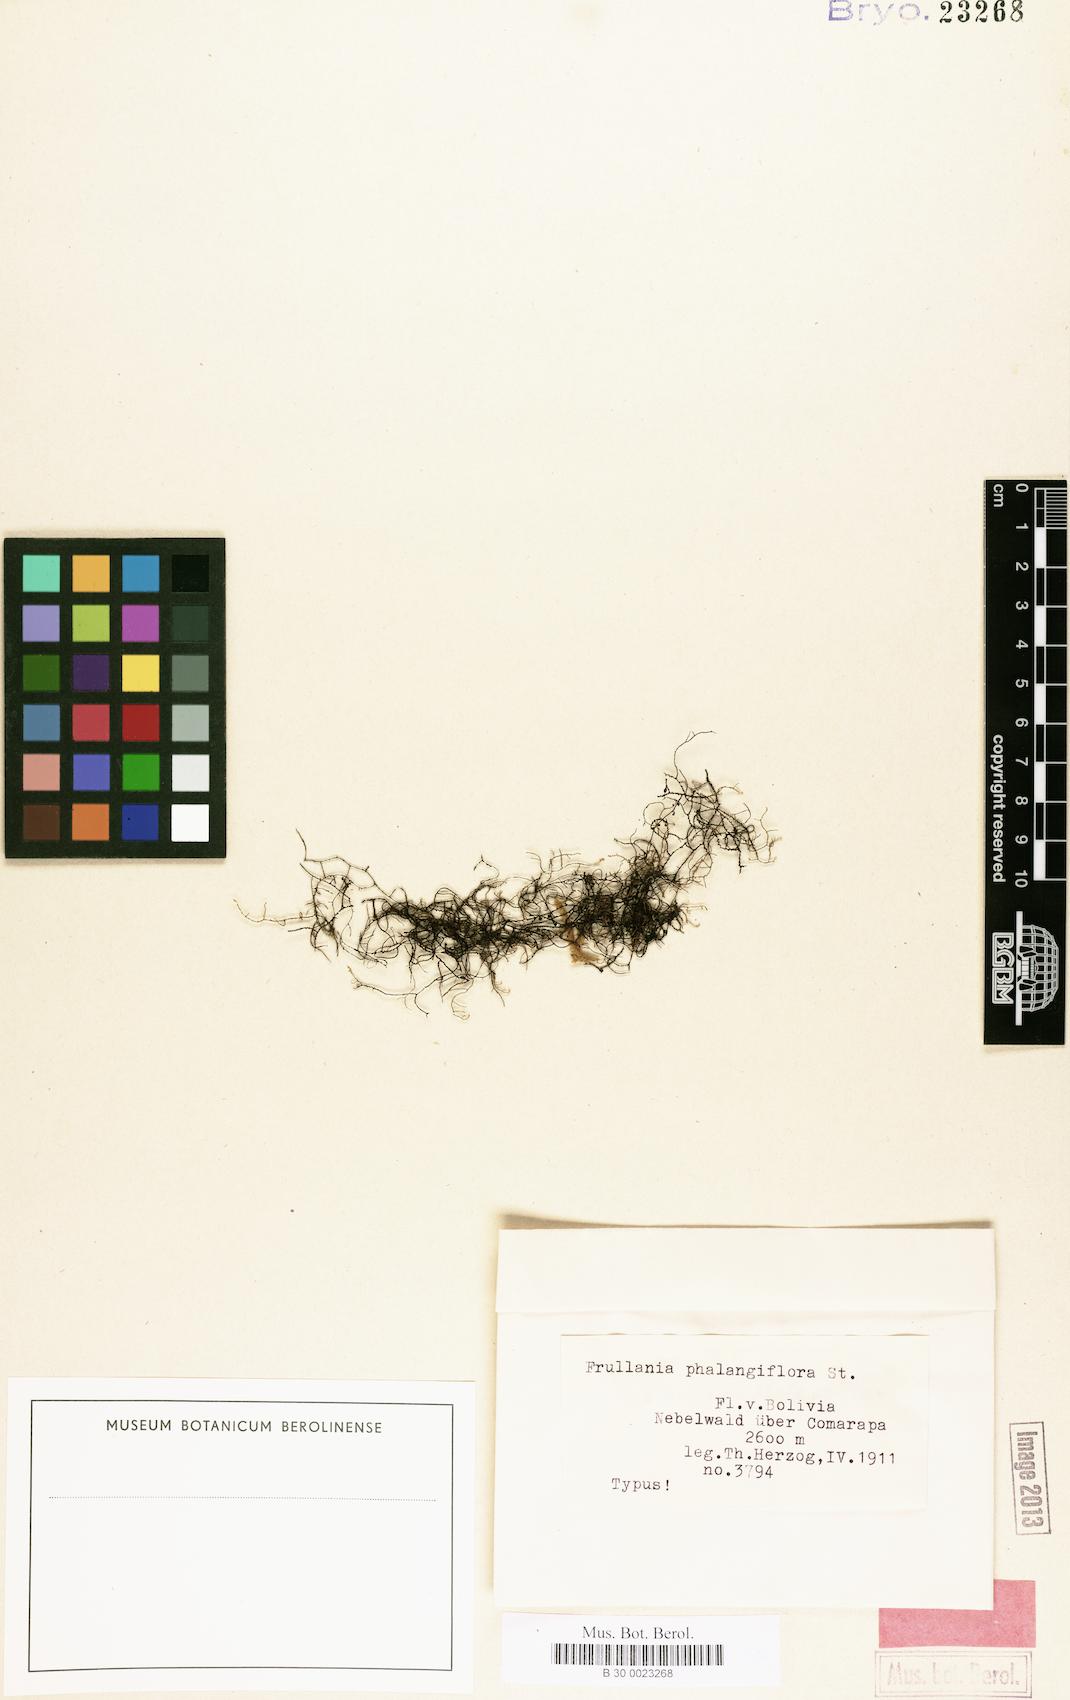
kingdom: Plantae
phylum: Marchantiophyta
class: Jungermanniopsida
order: Porellales
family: Frullaniaceae
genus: Frullania
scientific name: Frullania phalangiflora
